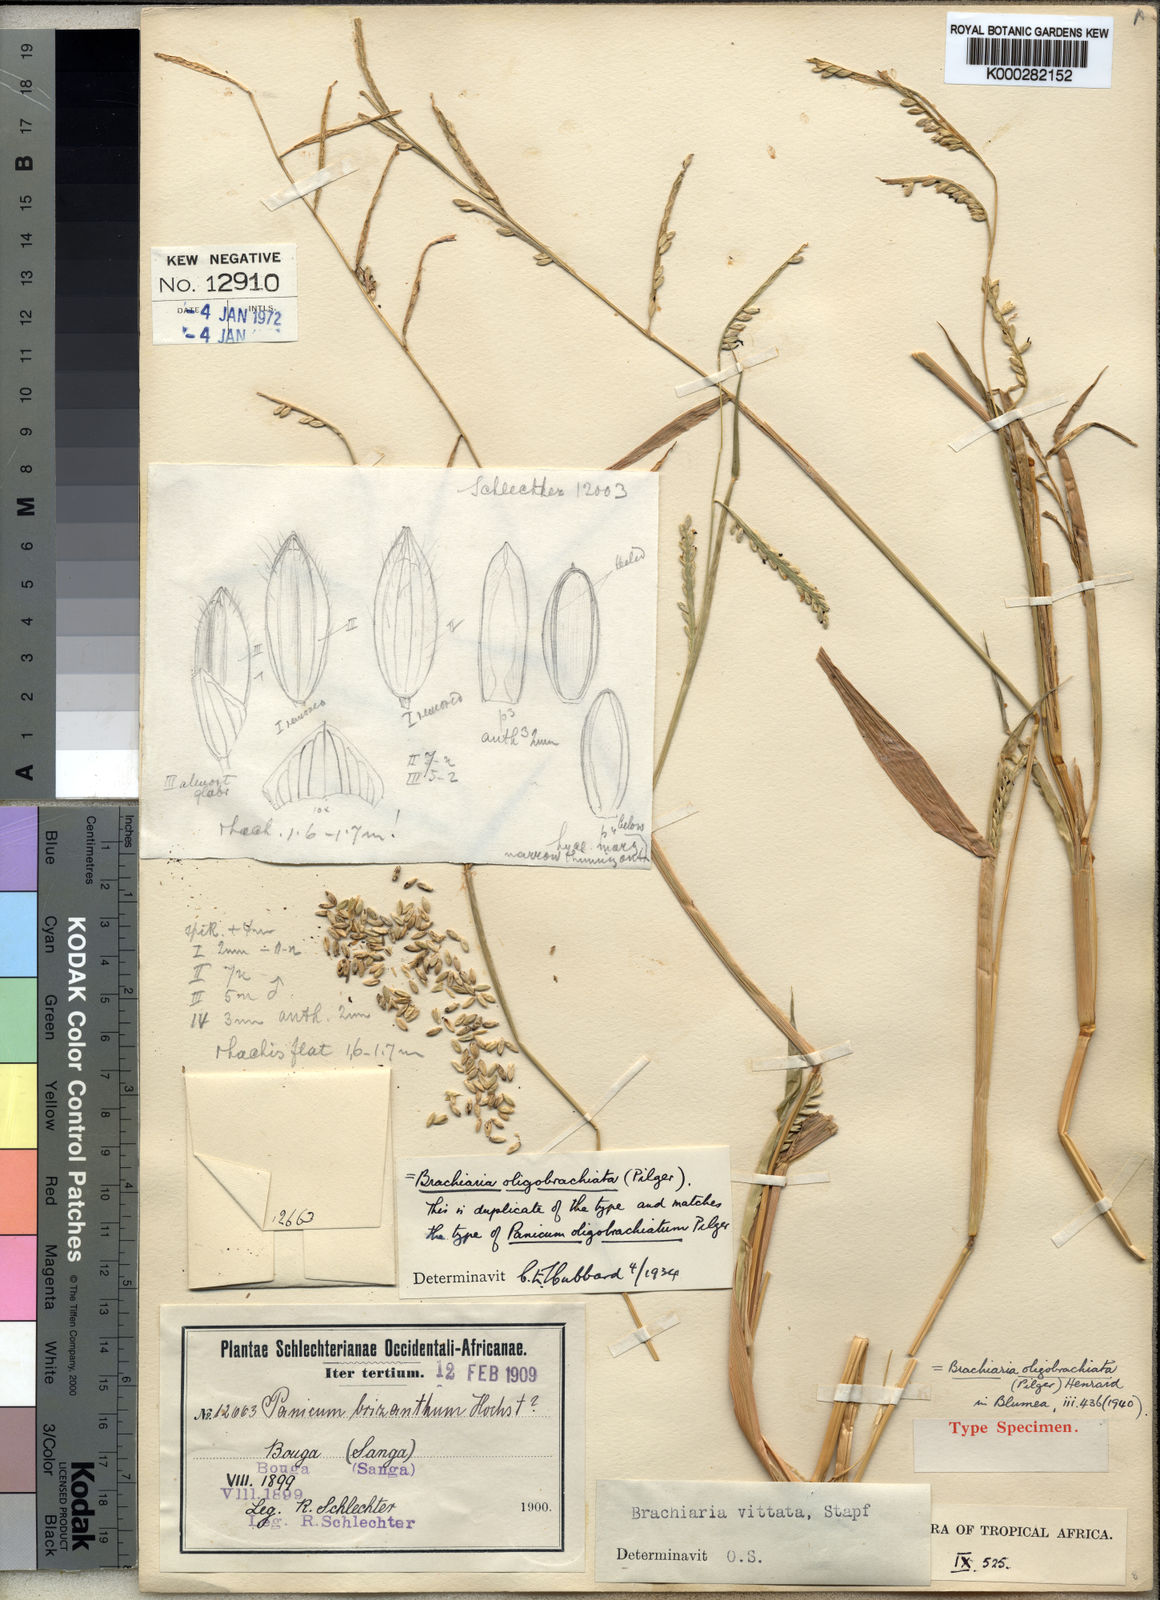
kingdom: Plantae
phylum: Tracheophyta
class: Liliopsida
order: Poales
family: Poaceae
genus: Urochloa
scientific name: Urochloa oligobrachiata
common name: Weak signalgrass
